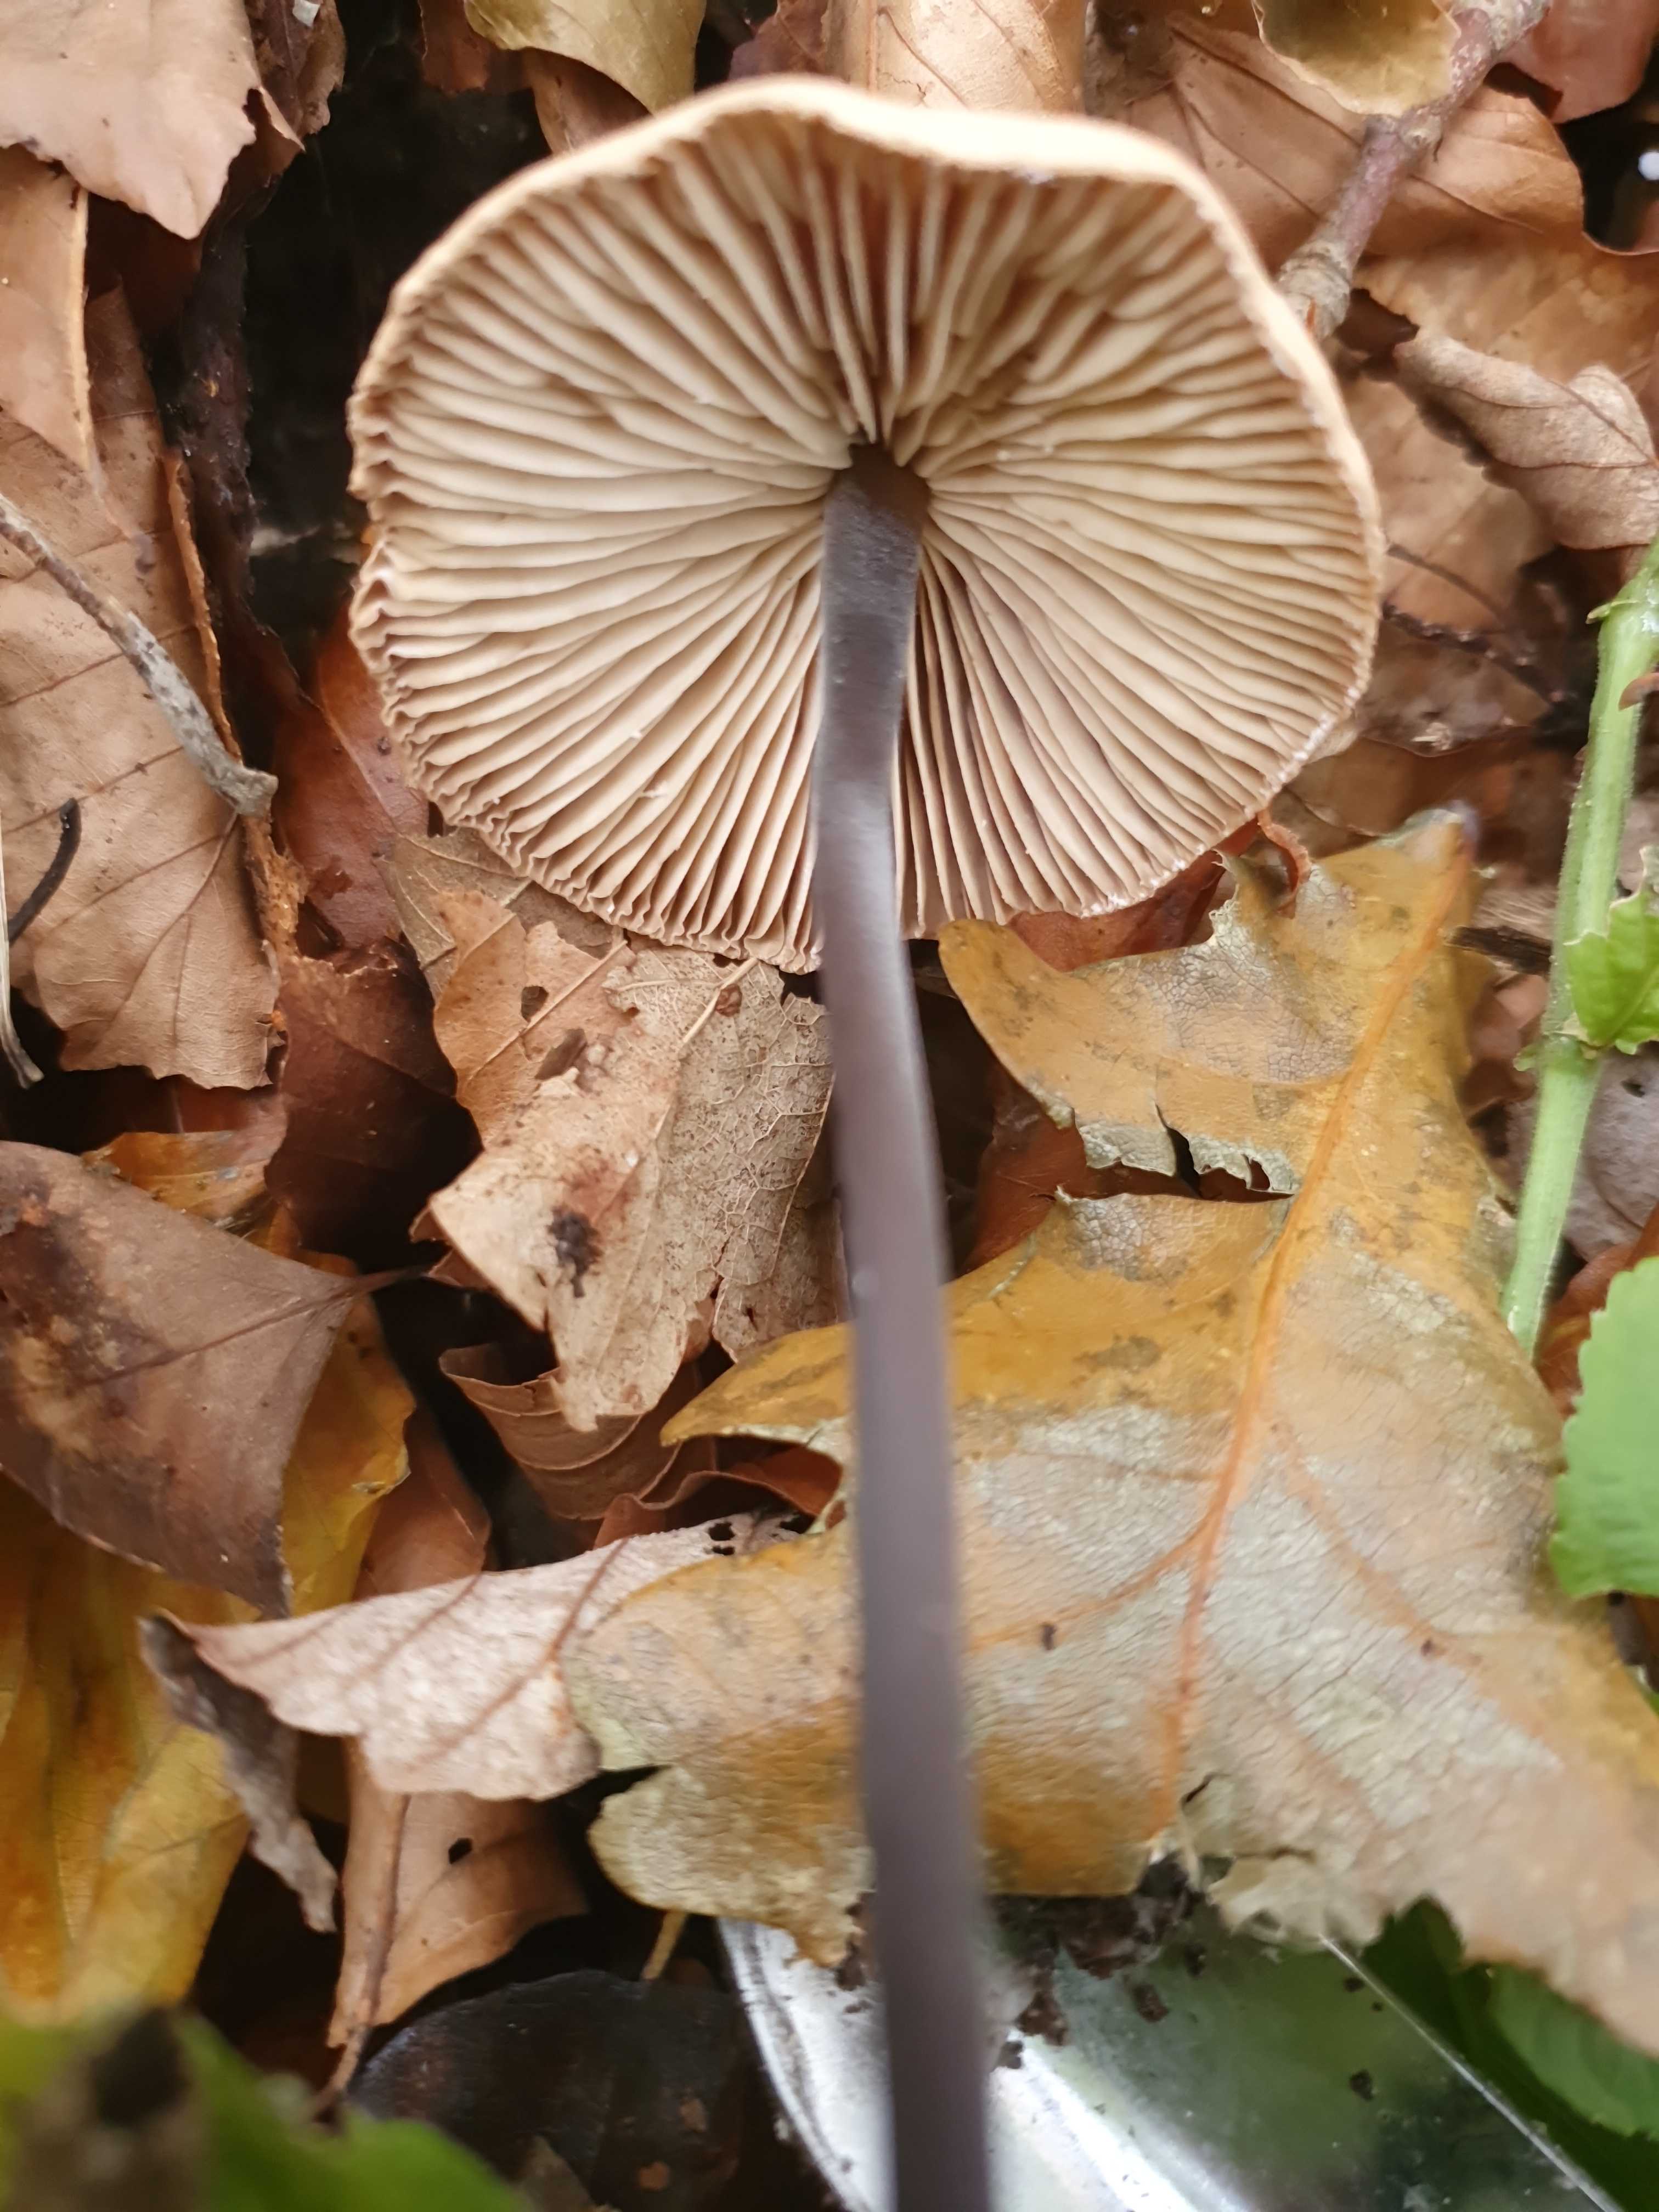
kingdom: Fungi
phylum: Basidiomycota
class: Agaricomycetes
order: Agaricales
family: Omphalotaceae
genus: Mycetinis
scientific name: Mycetinis alliaceus
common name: stor løghat
